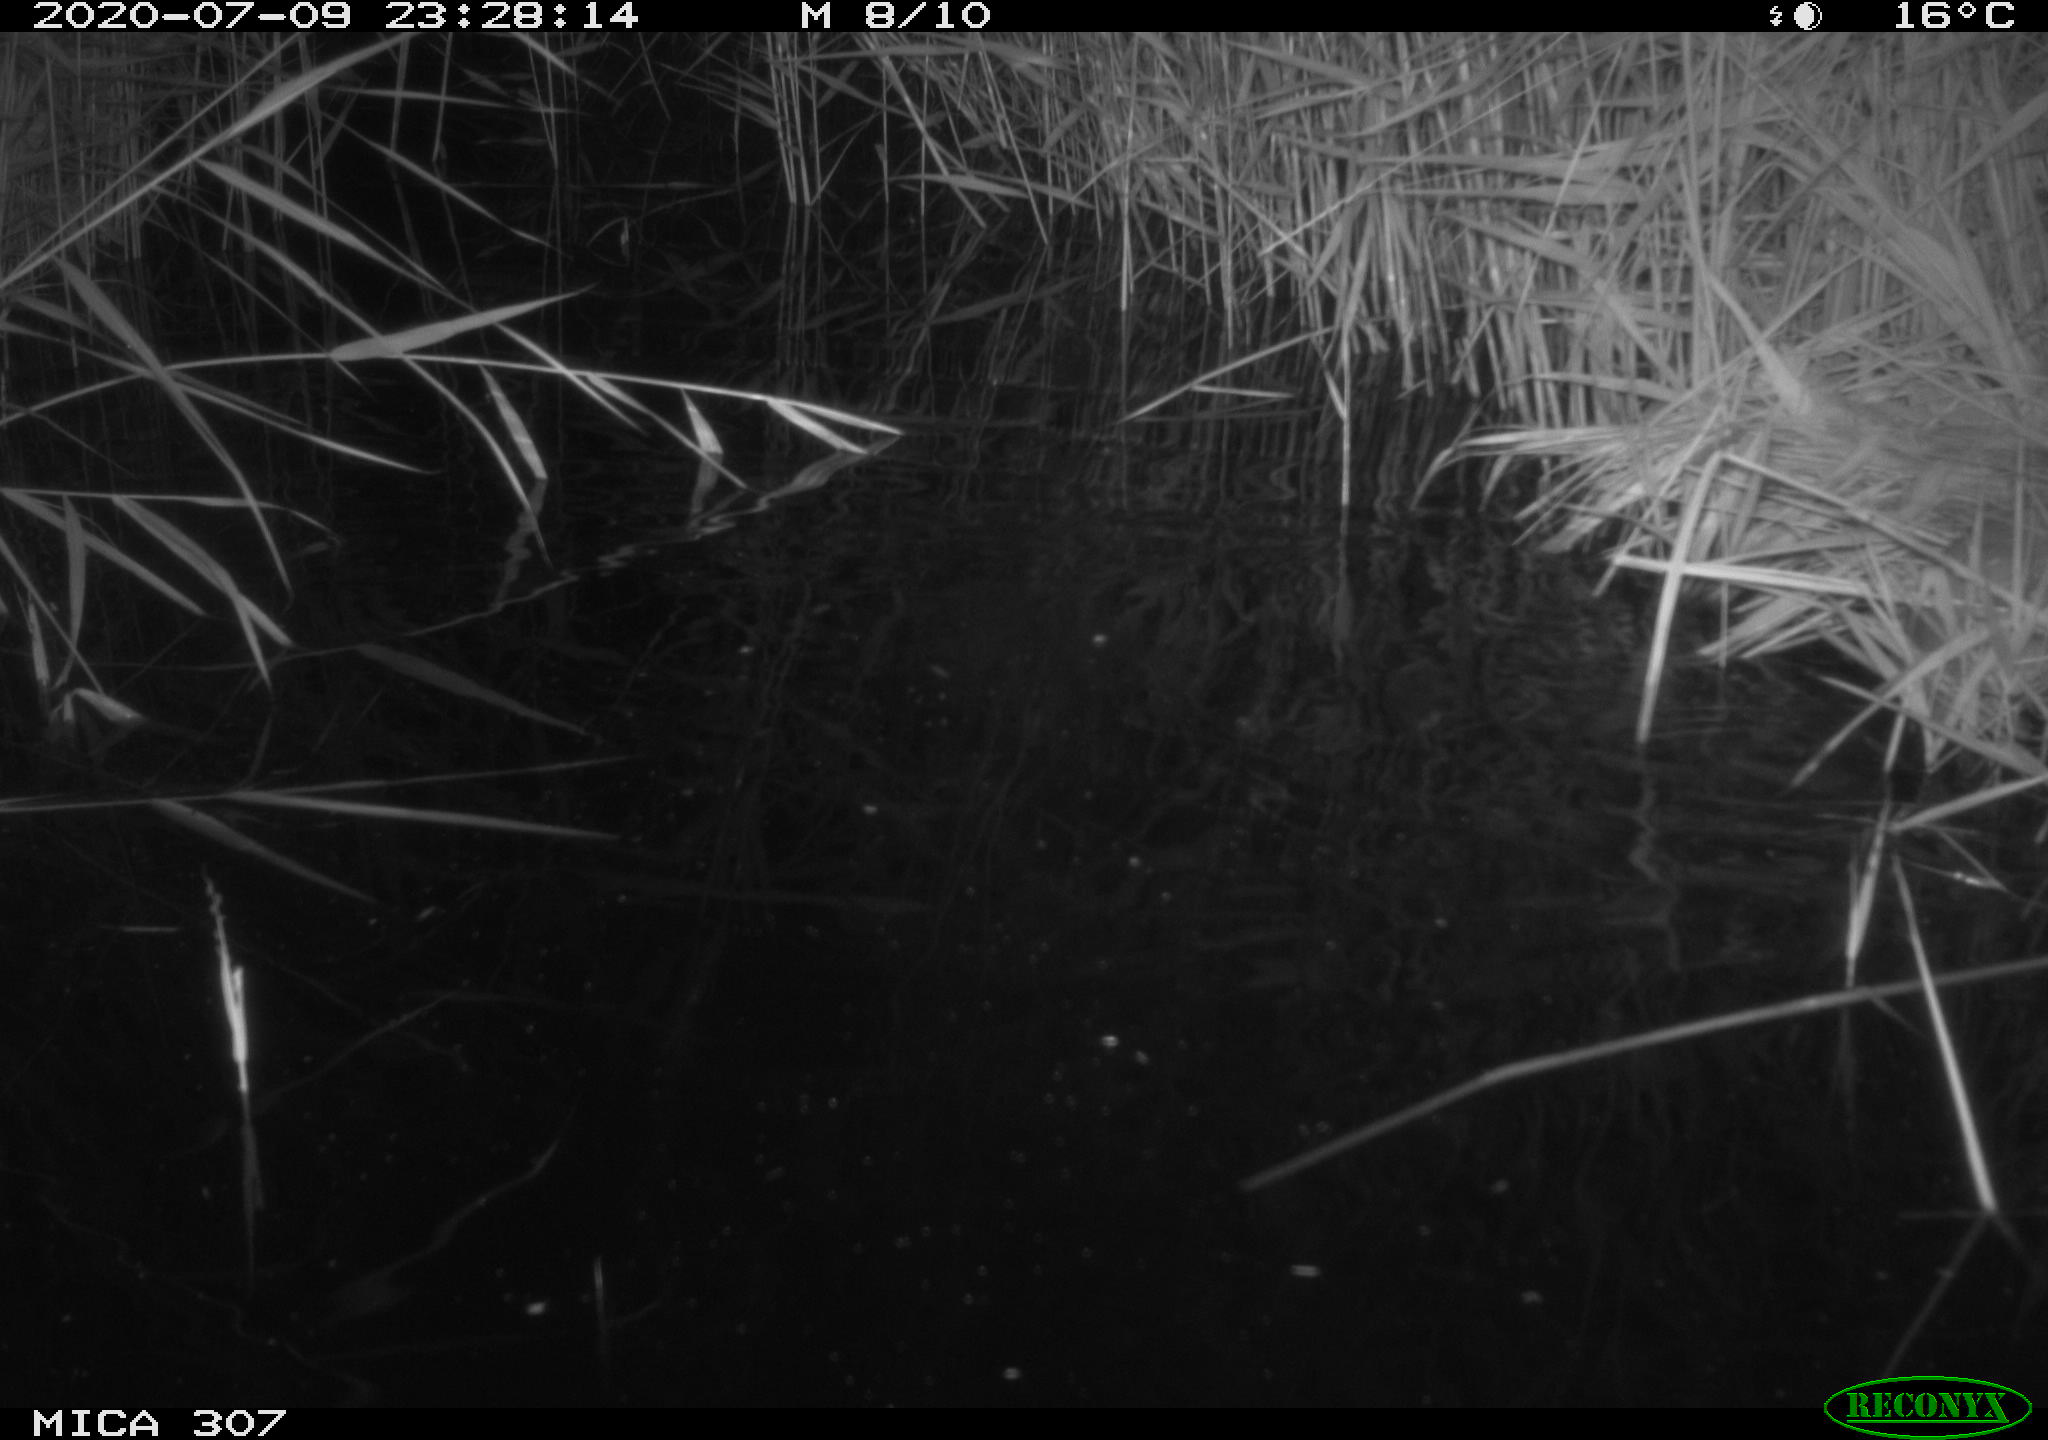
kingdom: Animalia
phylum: Chordata
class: Mammalia
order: Rodentia
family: Muridae
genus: Rattus
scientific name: Rattus norvegicus
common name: Brown rat
